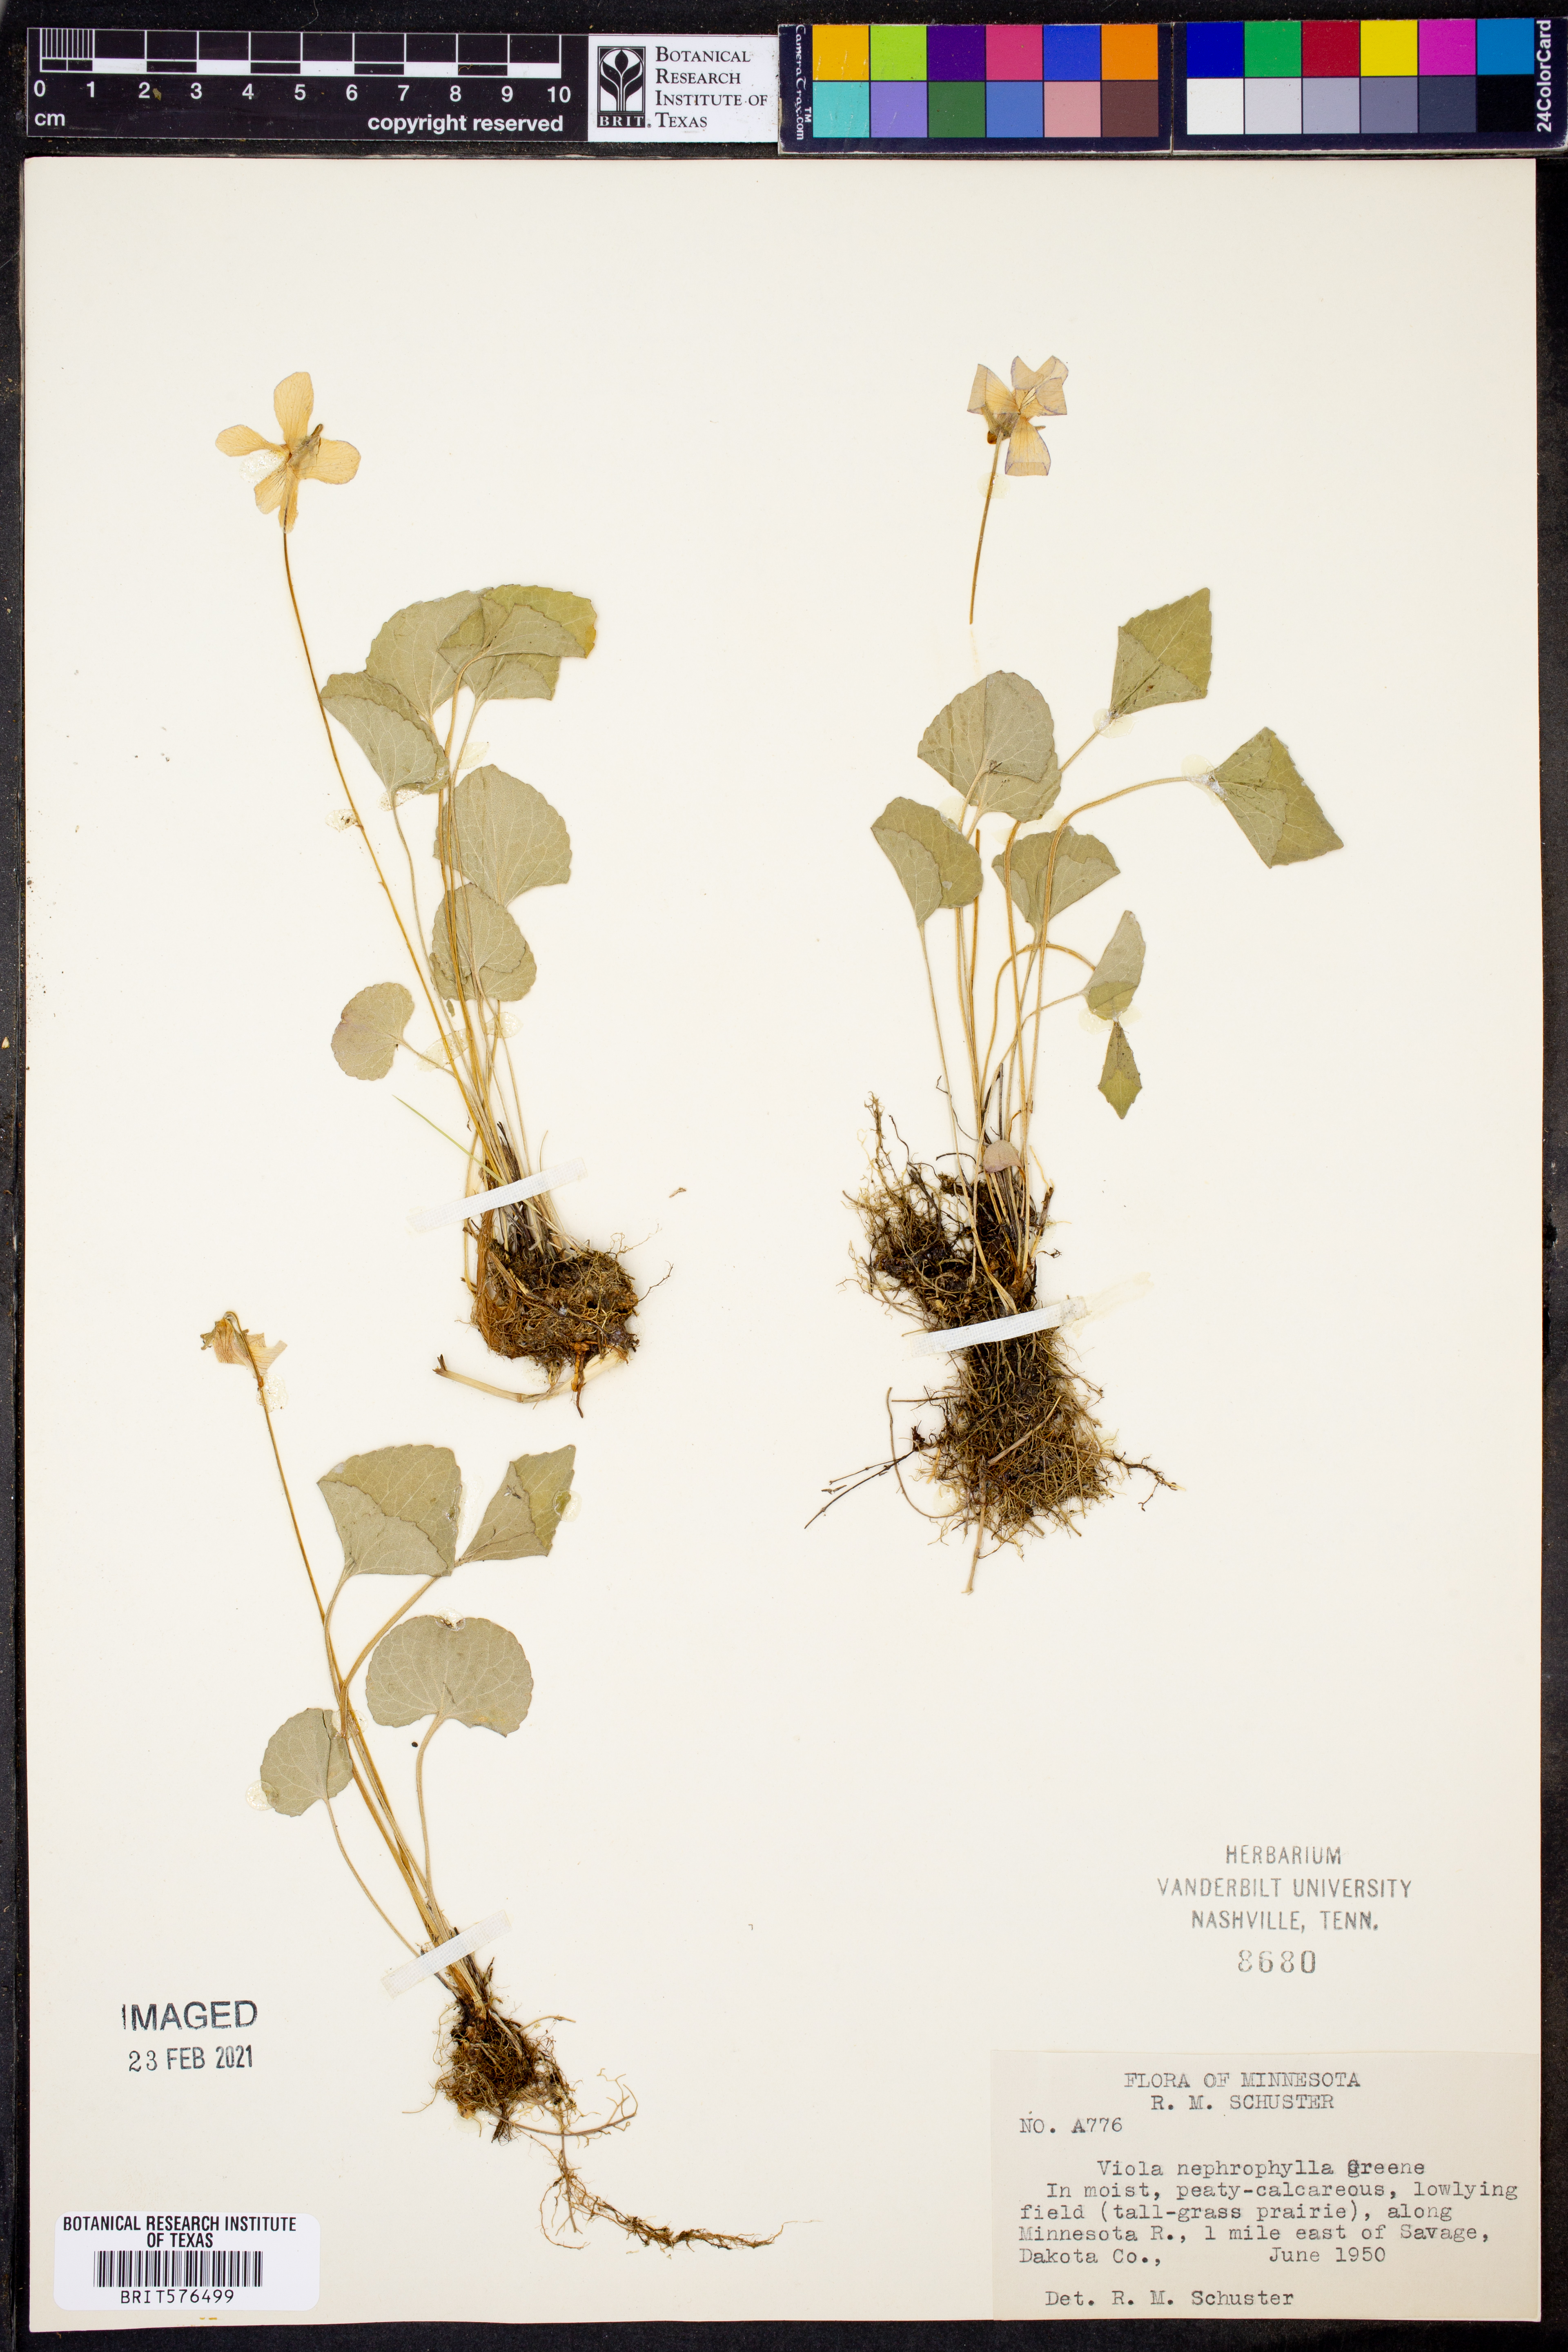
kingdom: Plantae
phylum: Tracheophyta
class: Magnoliopsida
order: Malpighiales
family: Violaceae
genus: Viola
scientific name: Viola nephrophylla
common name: Blue meadow violet
